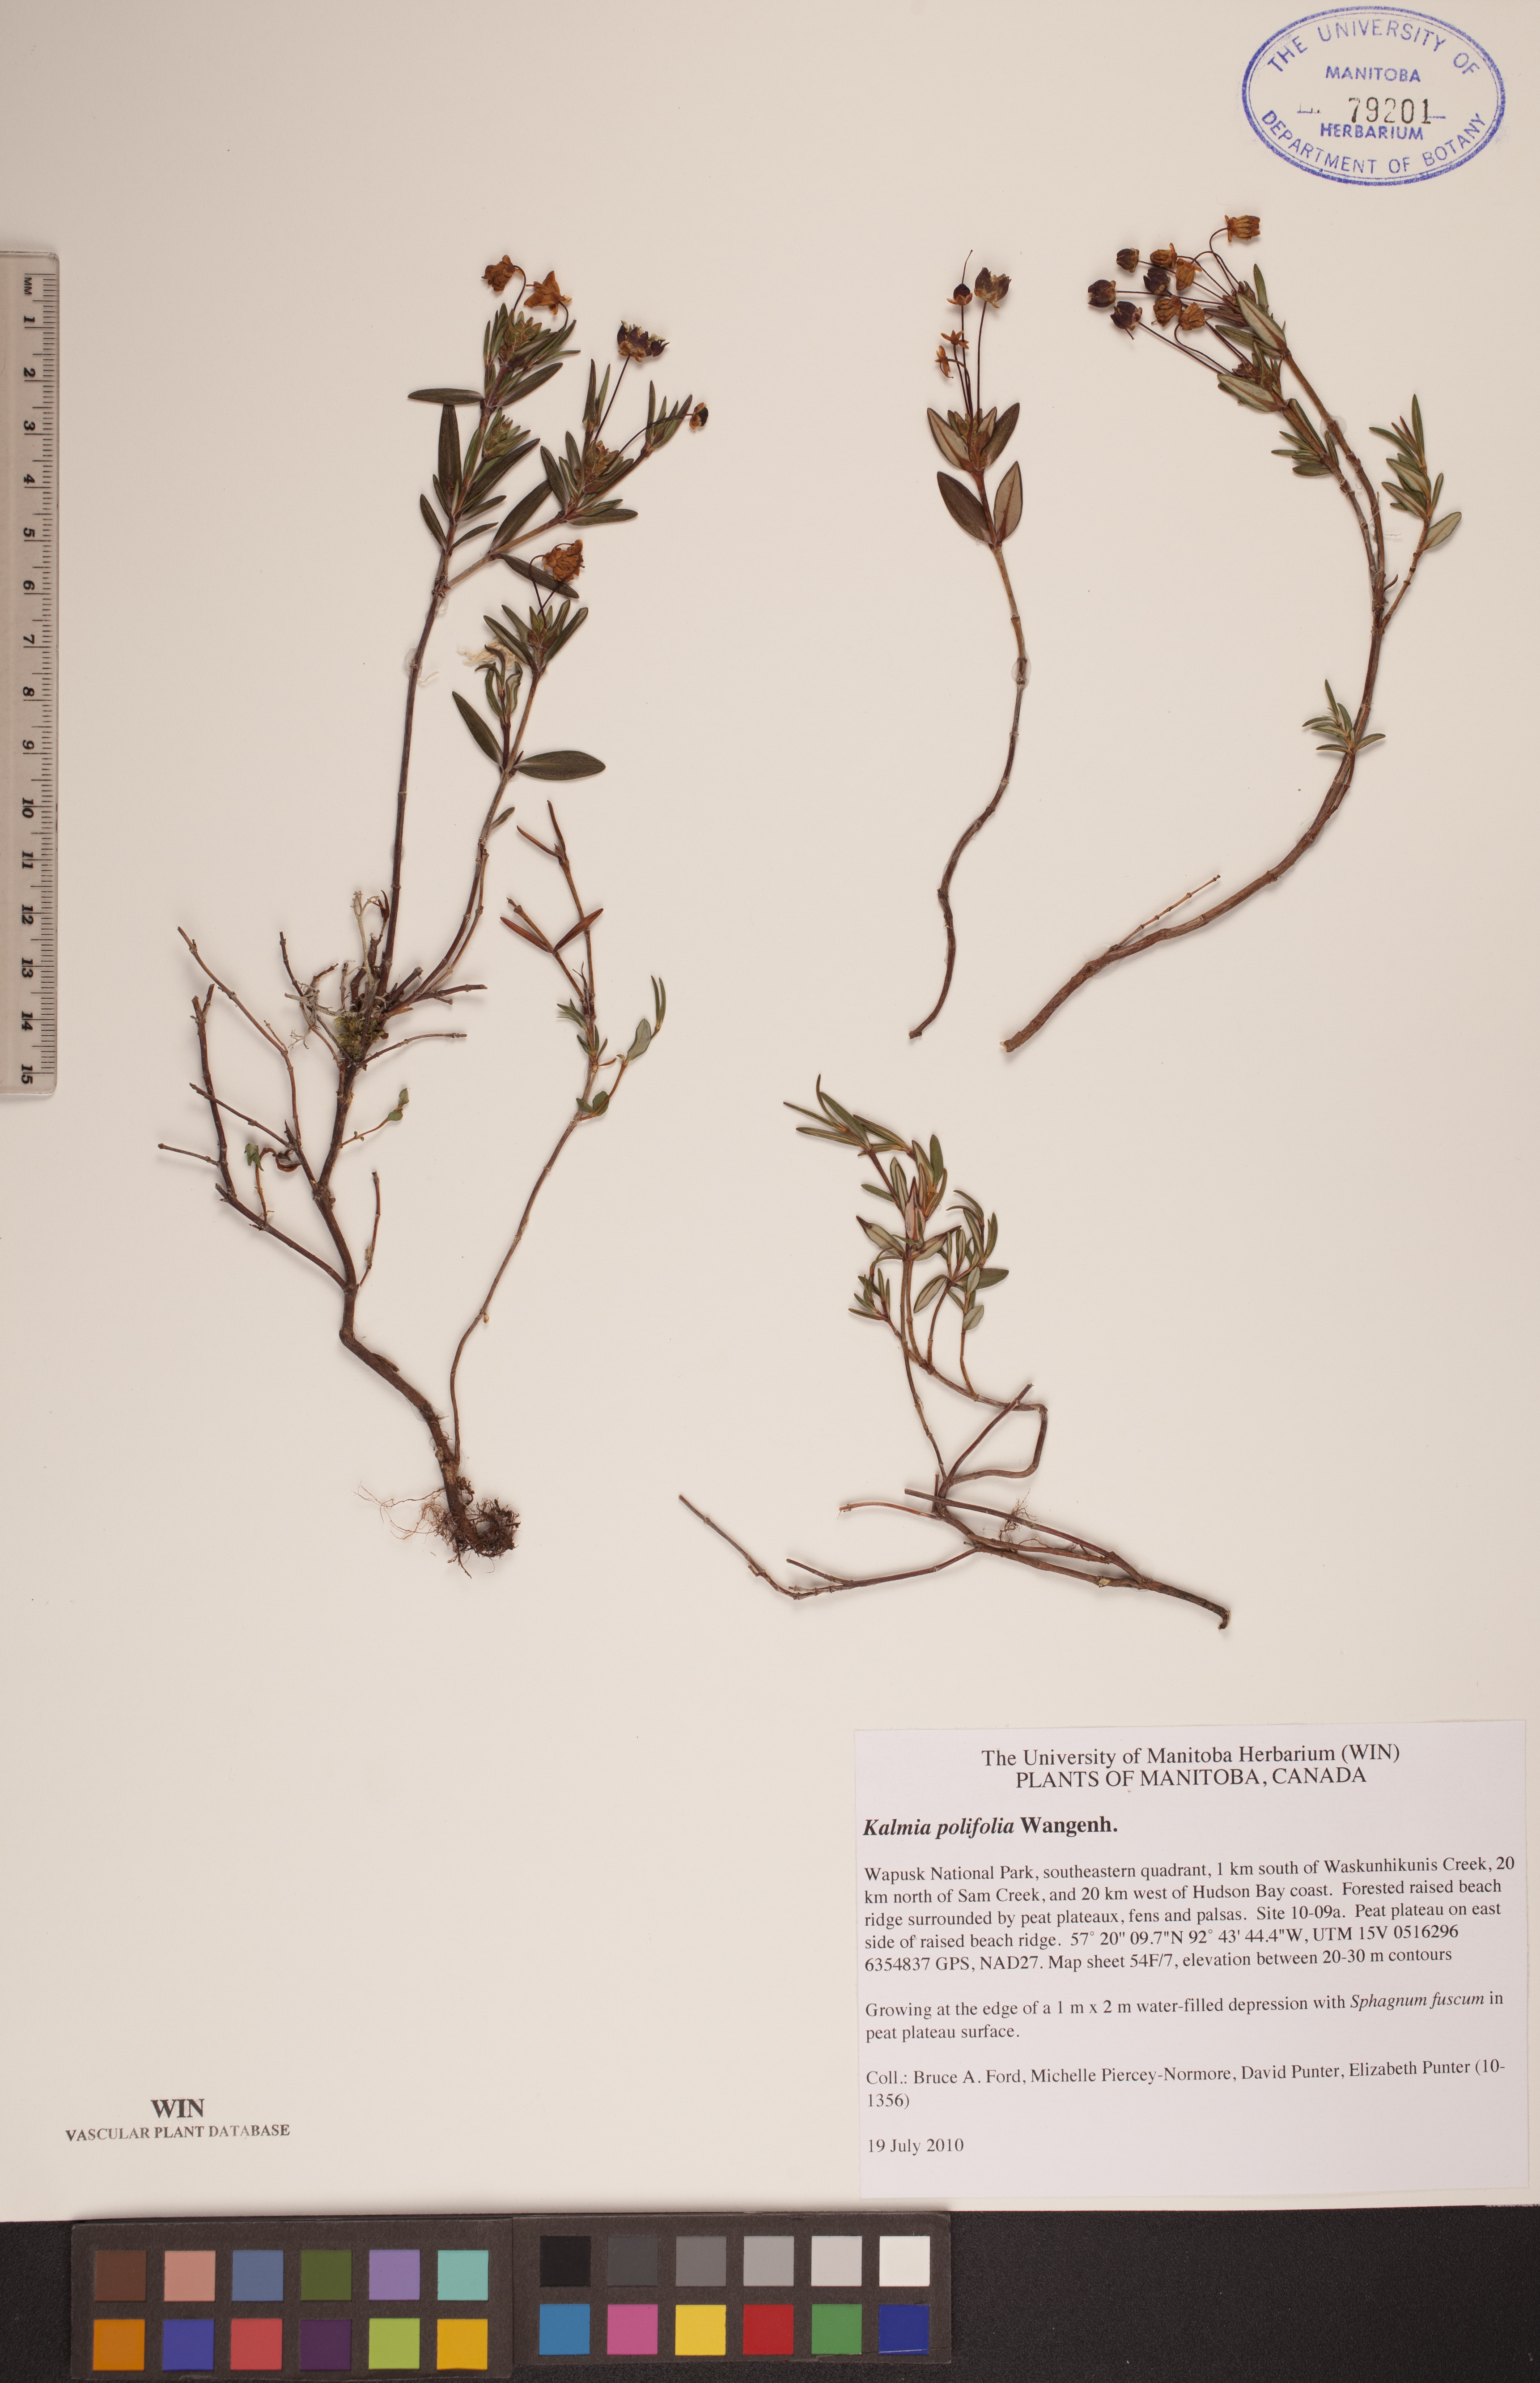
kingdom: Plantae
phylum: Tracheophyta
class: Magnoliopsida
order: Ericales
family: Ericaceae
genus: Kalmia
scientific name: Kalmia polifolia
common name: Bog-laurel
